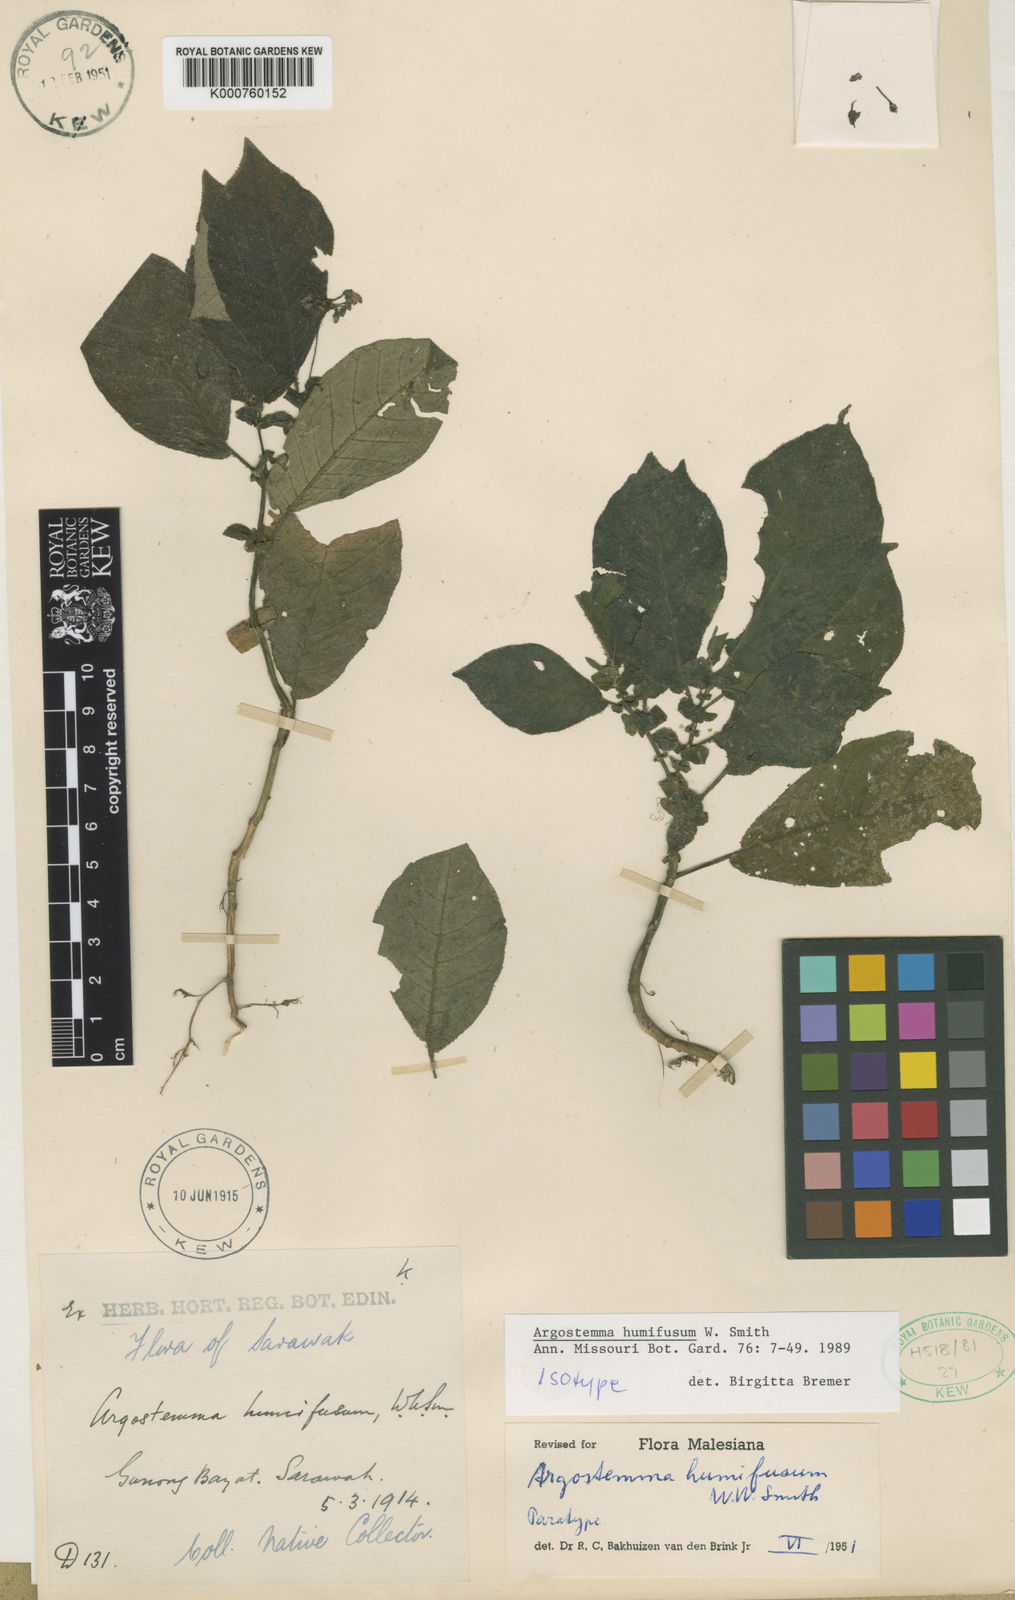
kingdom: Plantae
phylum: Tracheophyta
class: Magnoliopsida
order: Gentianales
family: Rubiaceae
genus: Argostemma
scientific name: Argostemma humifusum
